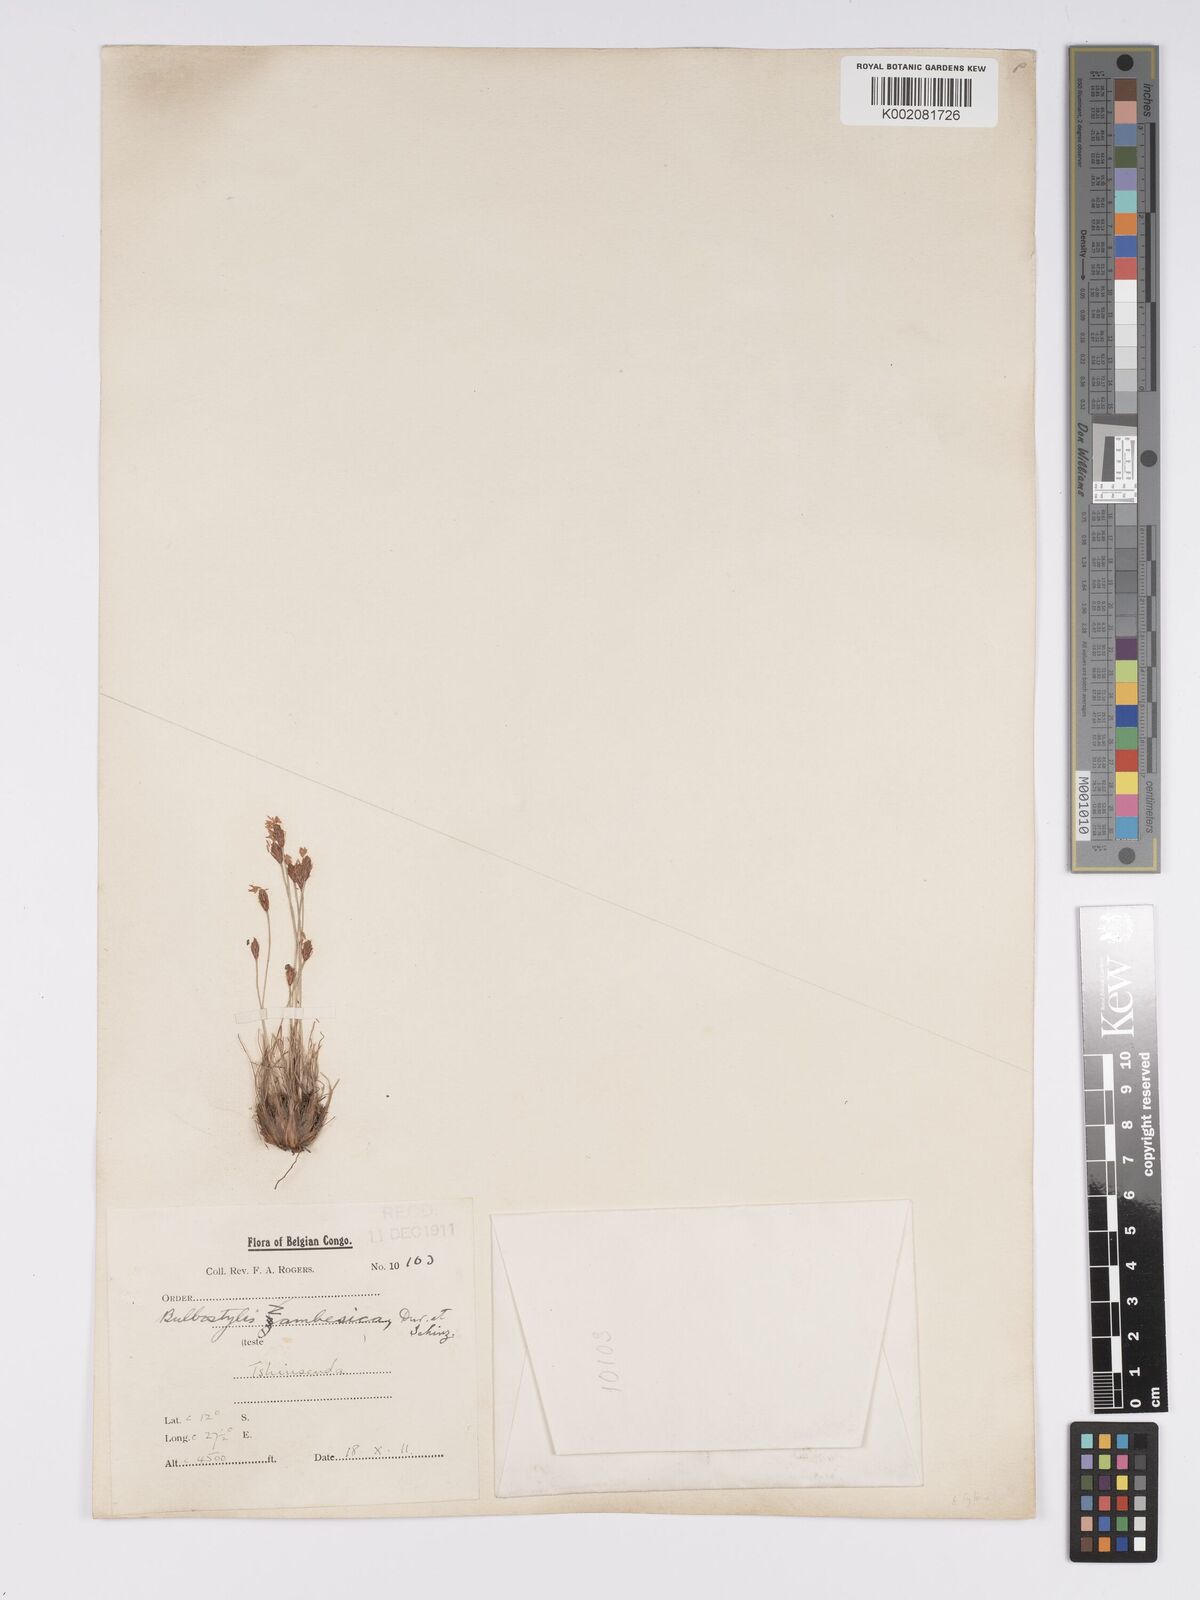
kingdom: Plantae
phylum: Tracheophyta
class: Liliopsida
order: Poales
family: Cyperaceae
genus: Bulbostylis
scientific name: Bulbostylis macra
